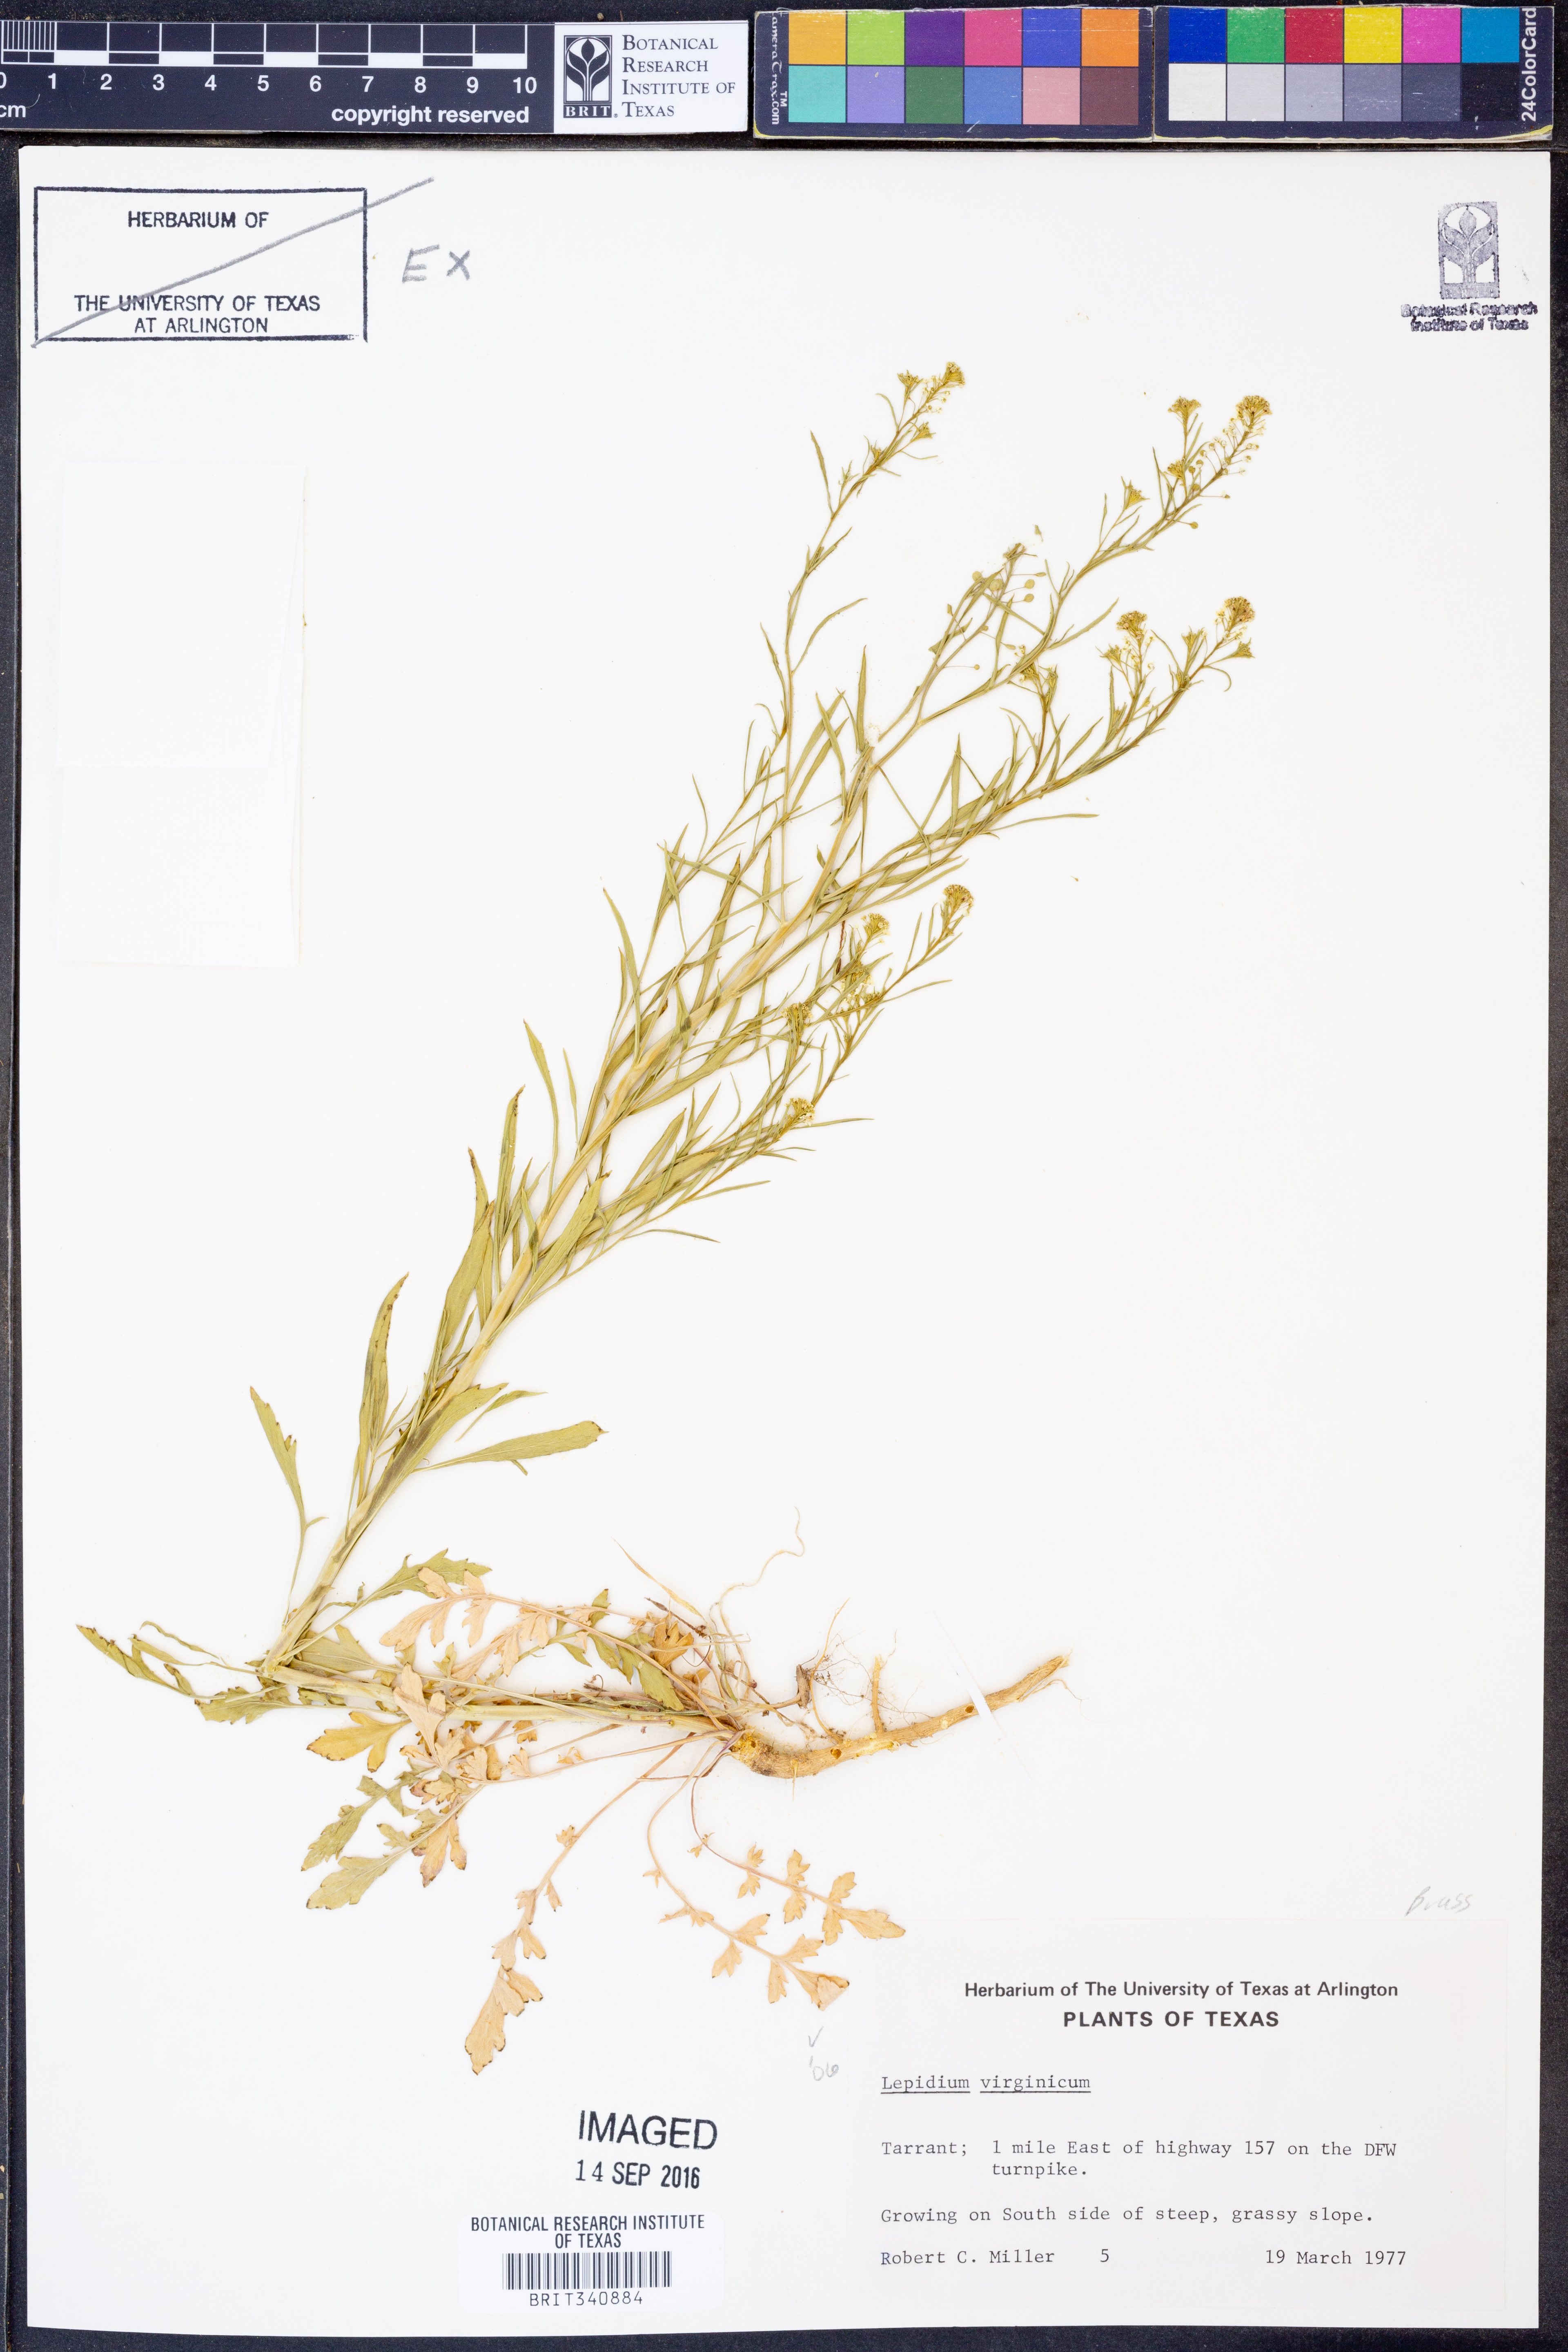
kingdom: Plantae
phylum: Tracheophyta
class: Magnoliopsida
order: Brassicales
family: Brassicaceae
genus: Lepidium
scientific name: Lepidium virginicum
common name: Least pepperwort
